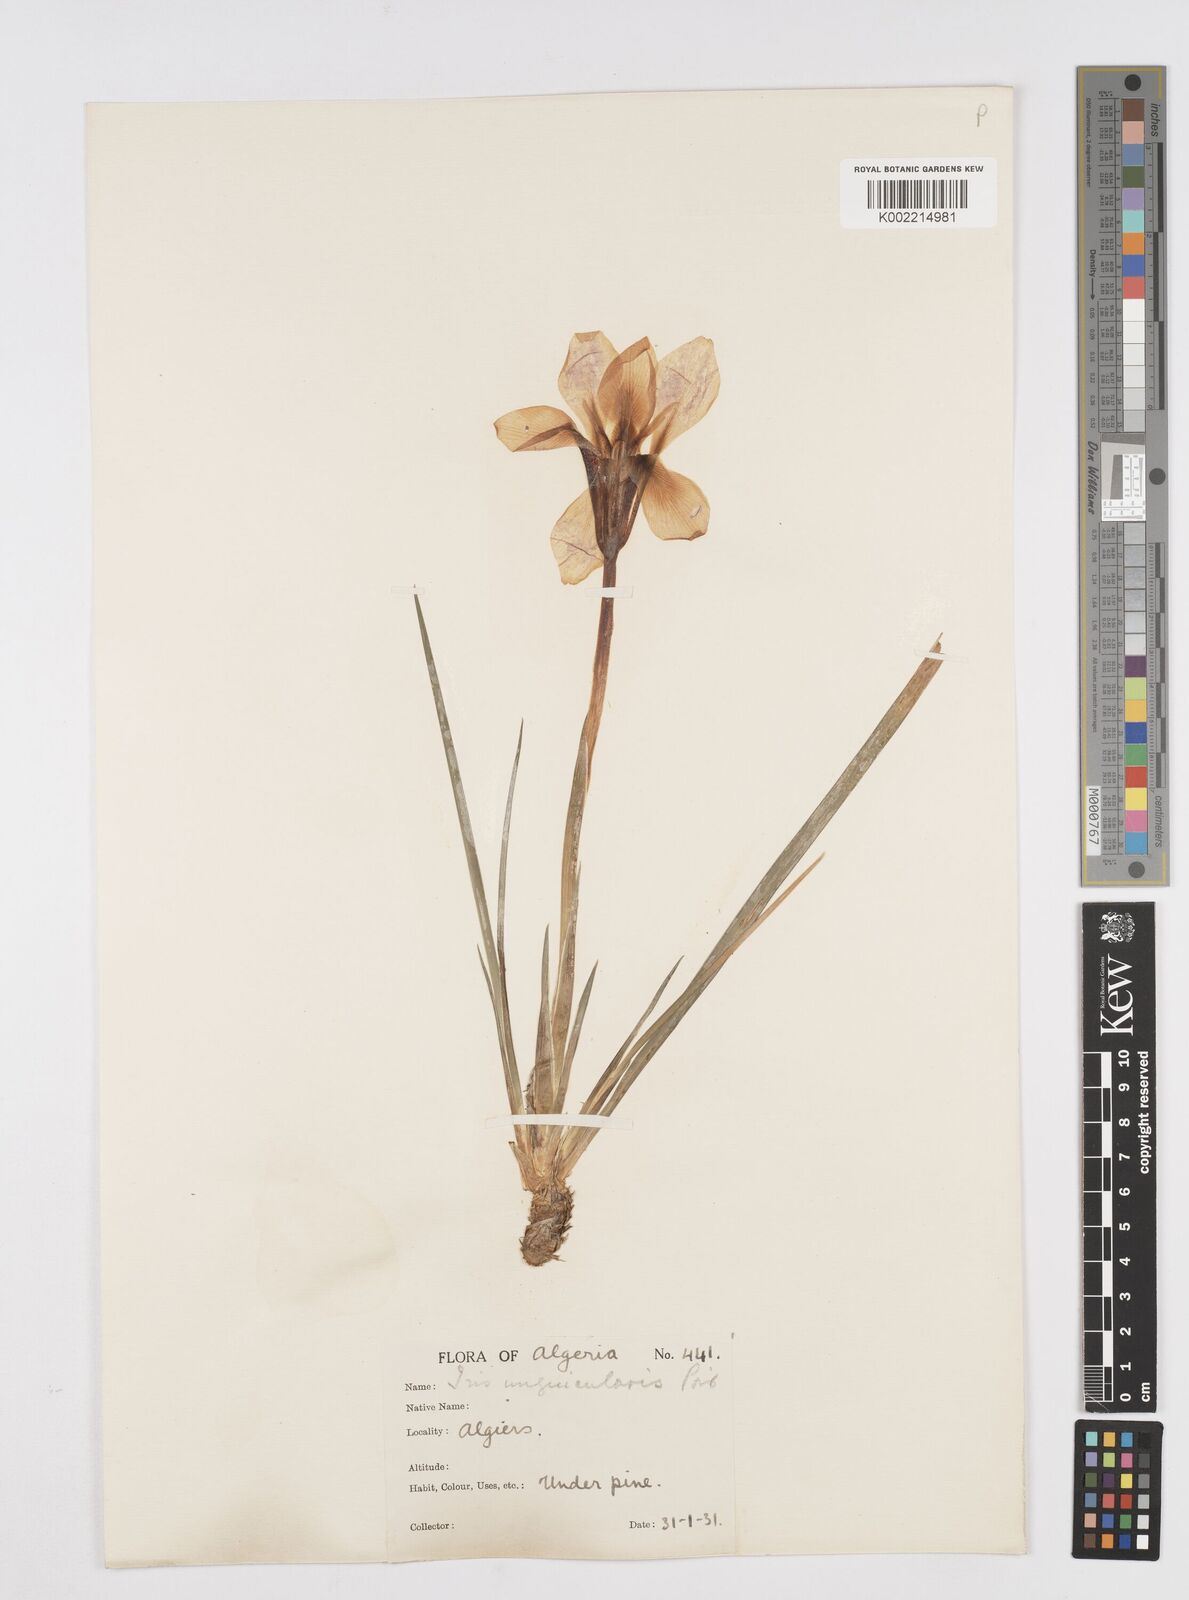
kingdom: Plantae
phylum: Tracheophyta
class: Liliopsida
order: Asparagales
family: Iridaceae
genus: Iris
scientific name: Iris unguicularis
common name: Algerian iris
